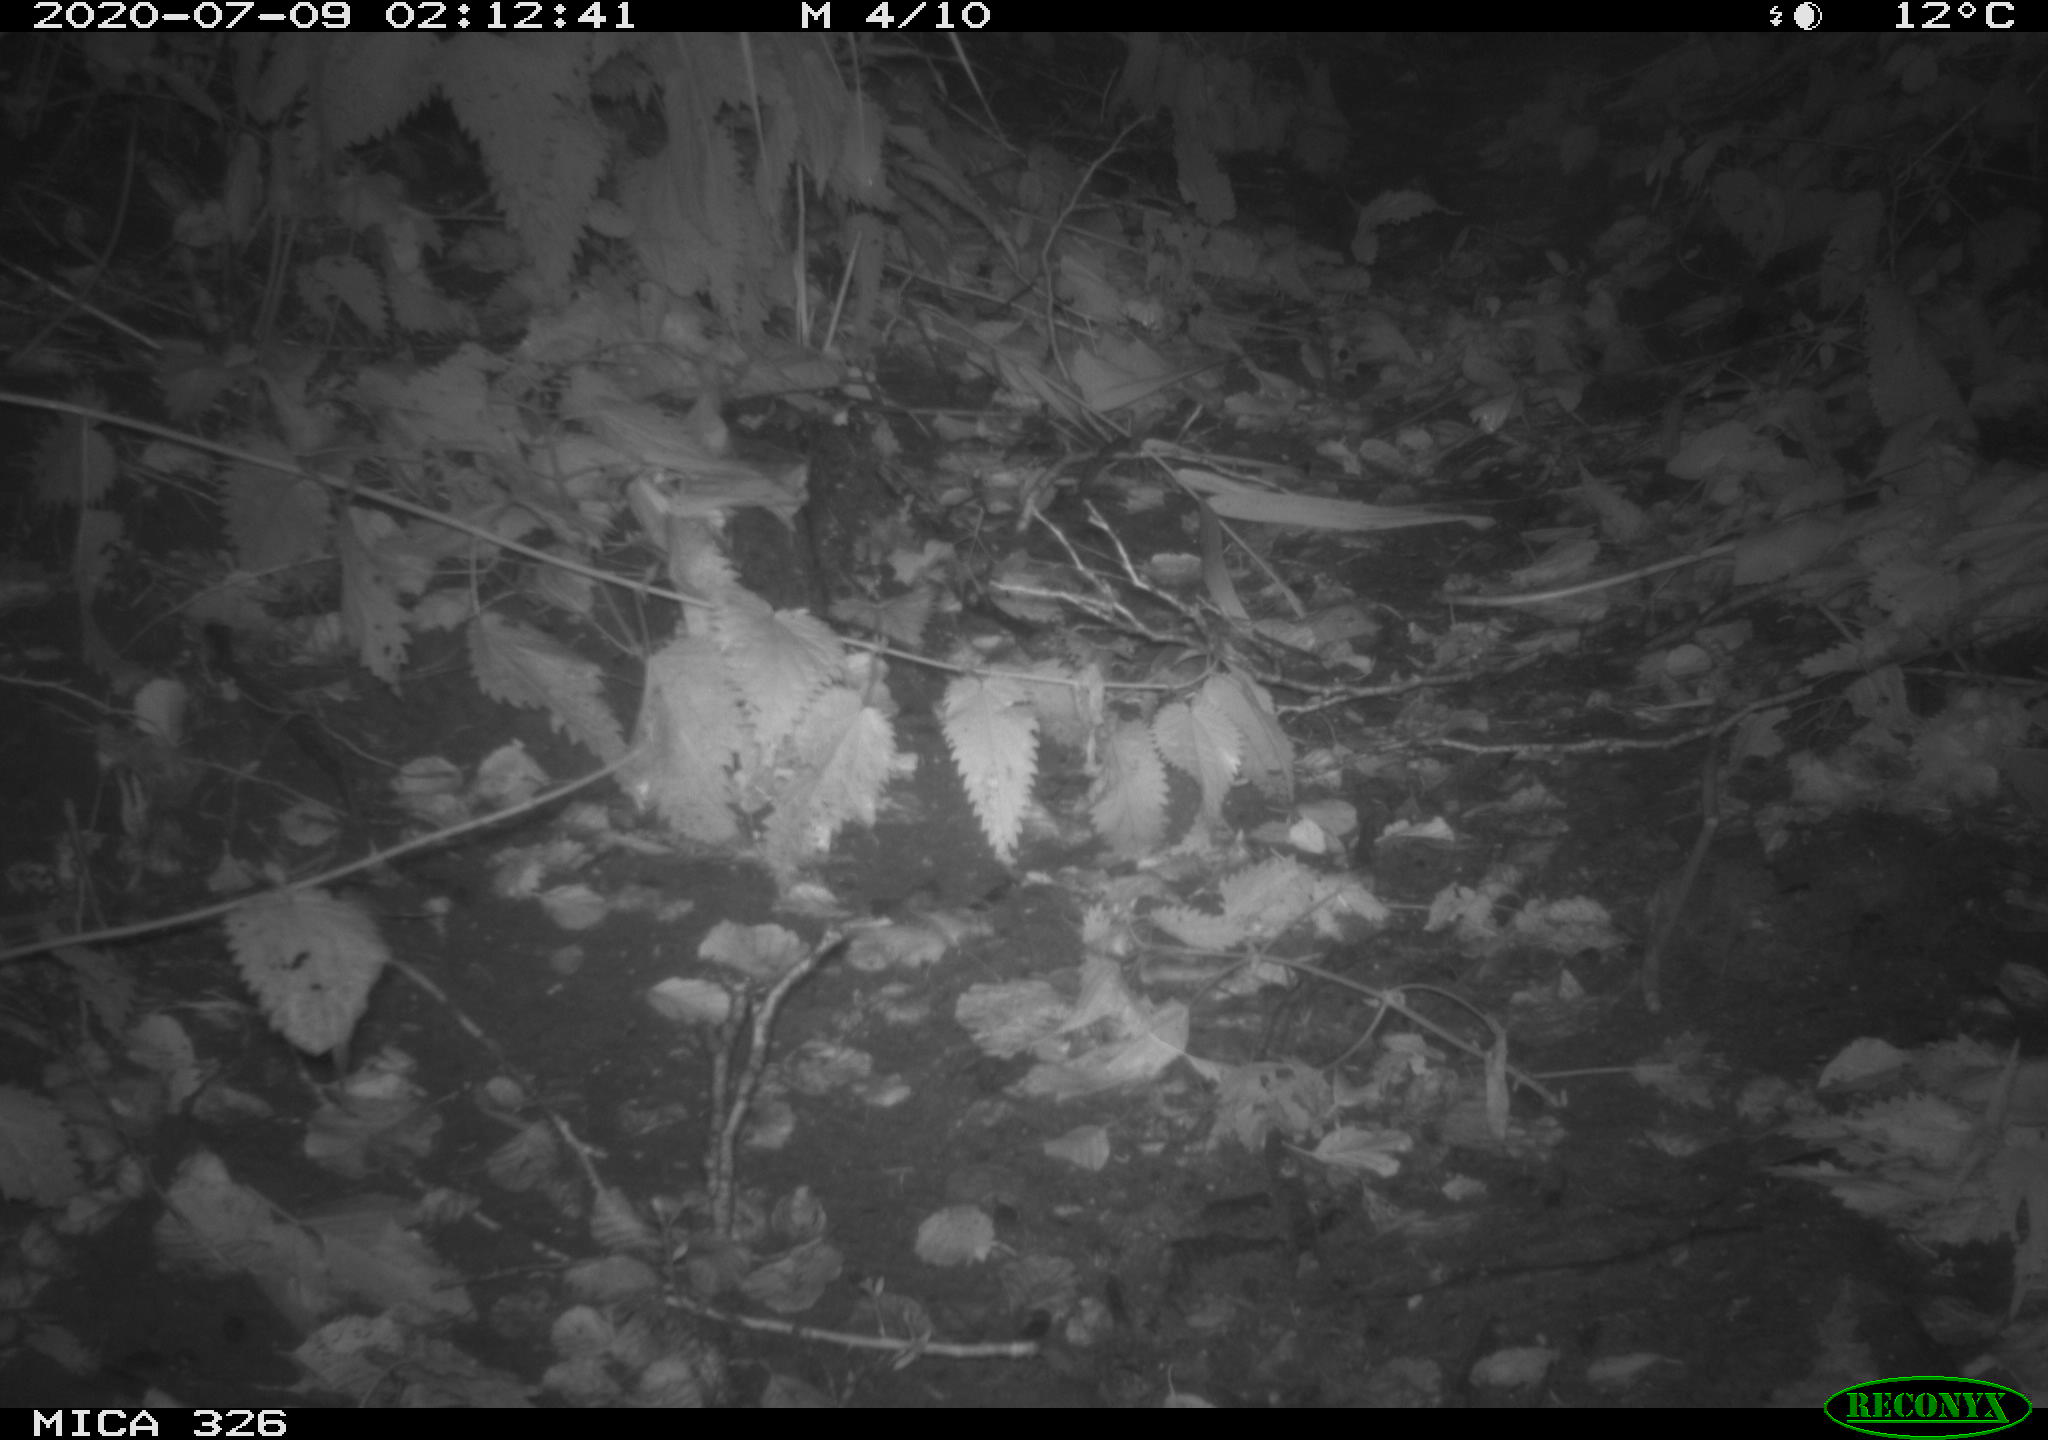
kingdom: Animalia
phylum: Chordata
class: Mammalia
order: Rodentia
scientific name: Rodentia
